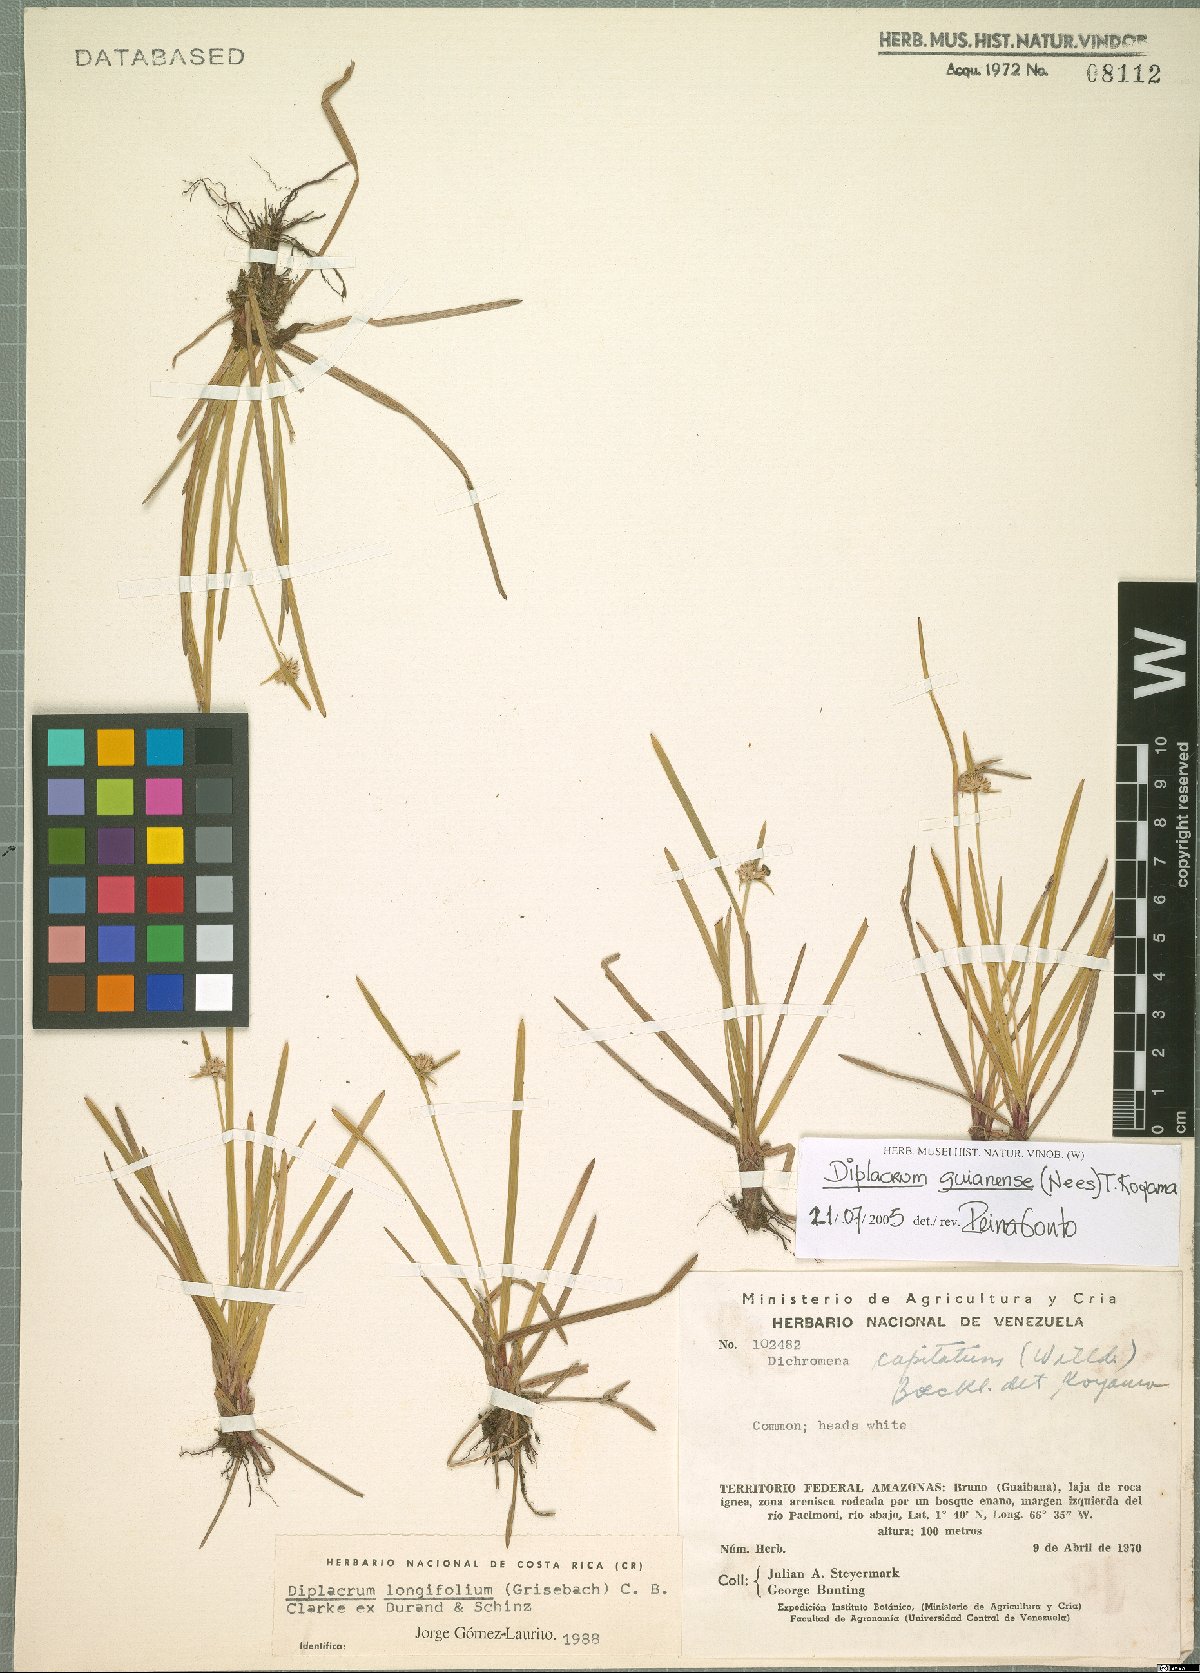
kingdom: Plantae
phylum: Tracheophyta
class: Liliopsida
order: Poales
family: Cyperaceae
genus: Diplacrum
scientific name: Diplacrum guianense
